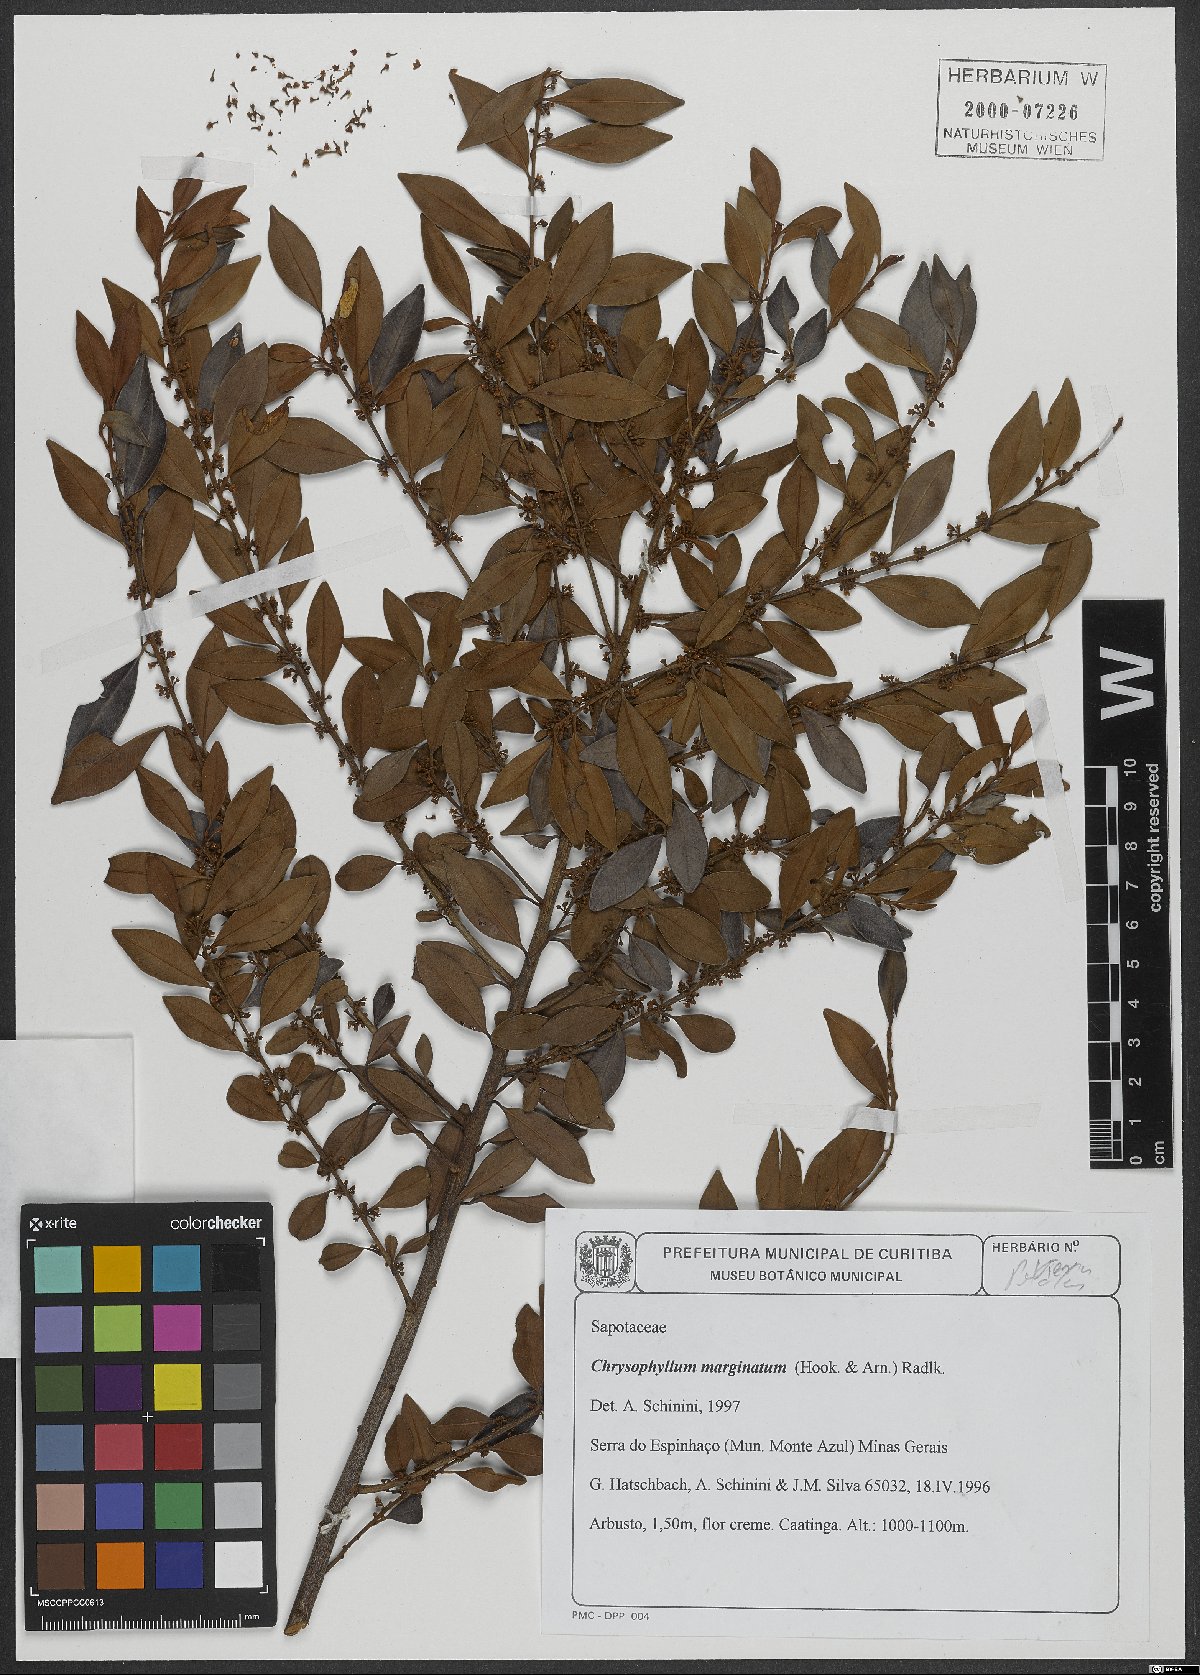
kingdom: Plantae
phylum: Tracheophyta
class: Magnoliopsida
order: Ericales
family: Sapotaceae
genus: Chrysophyllum
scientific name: Chrysophyllum marginatum
